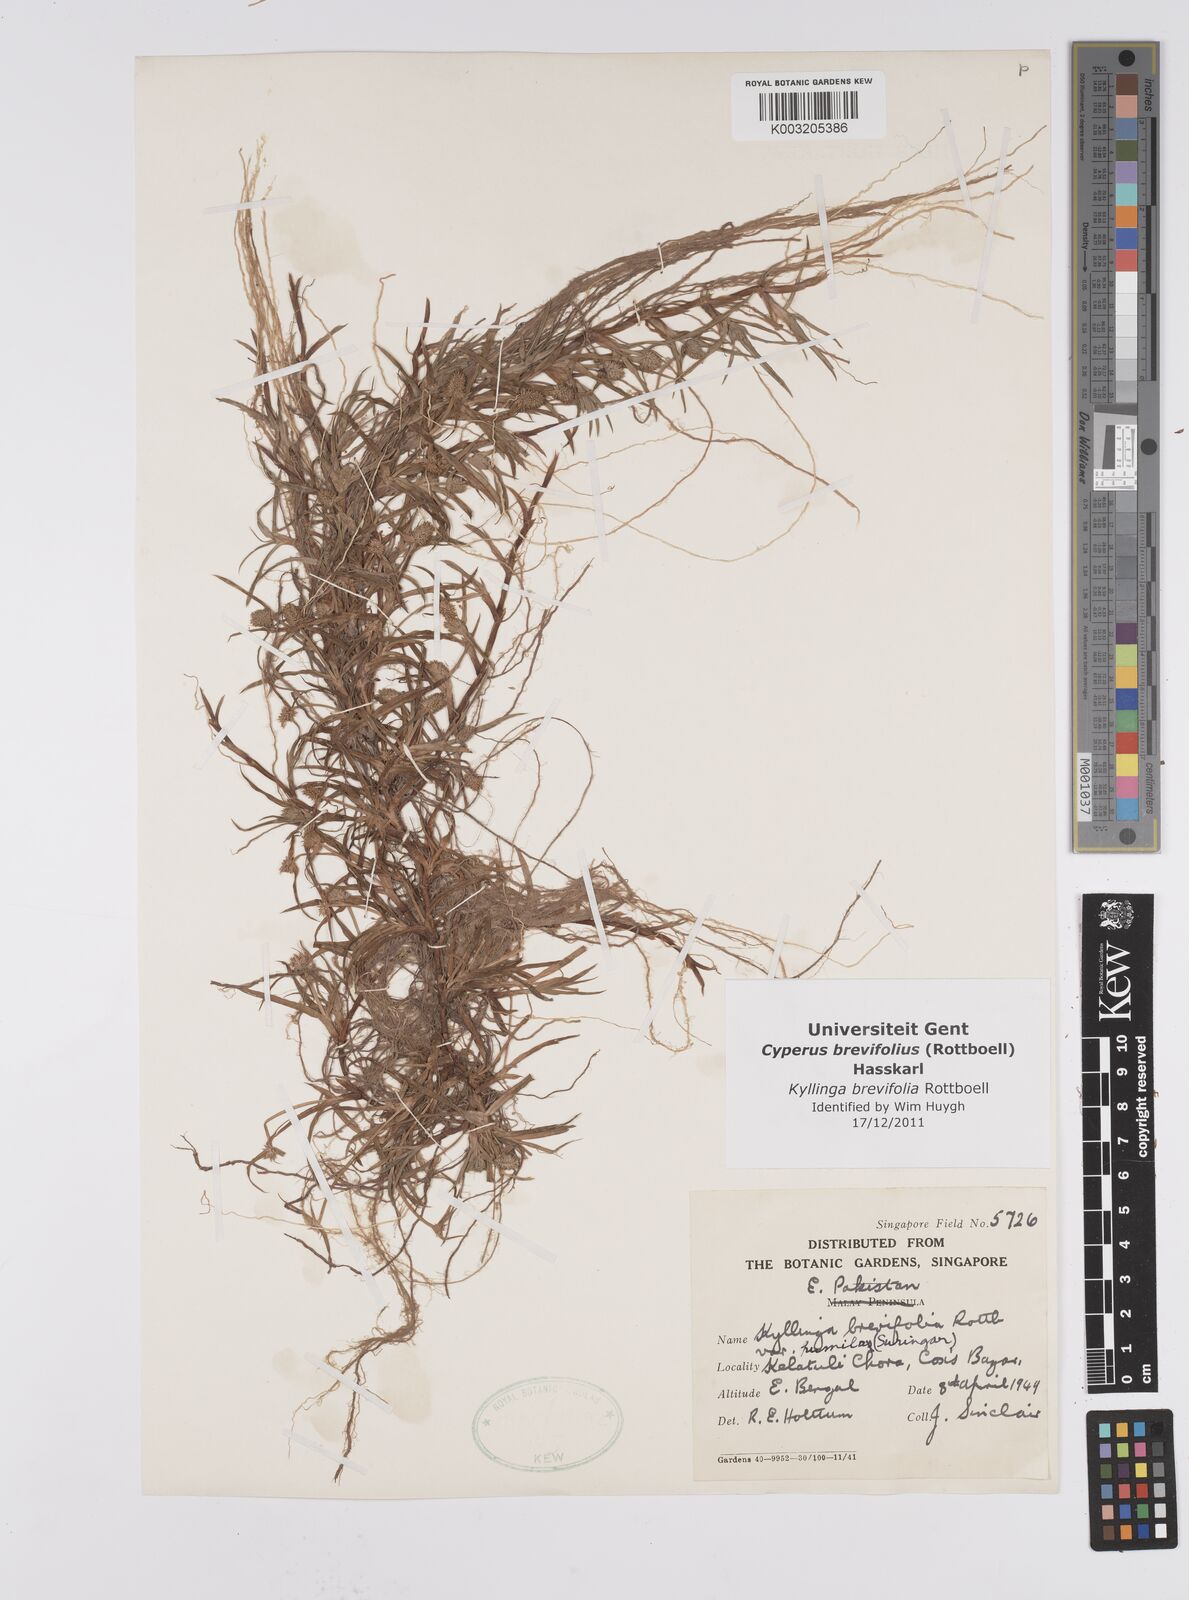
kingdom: Plantae
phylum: Tracheophyta
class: Liliopsida
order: Poales
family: Cyperaceae
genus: Cyperus
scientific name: Cyperus brevifolius
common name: Globe kyllinga
